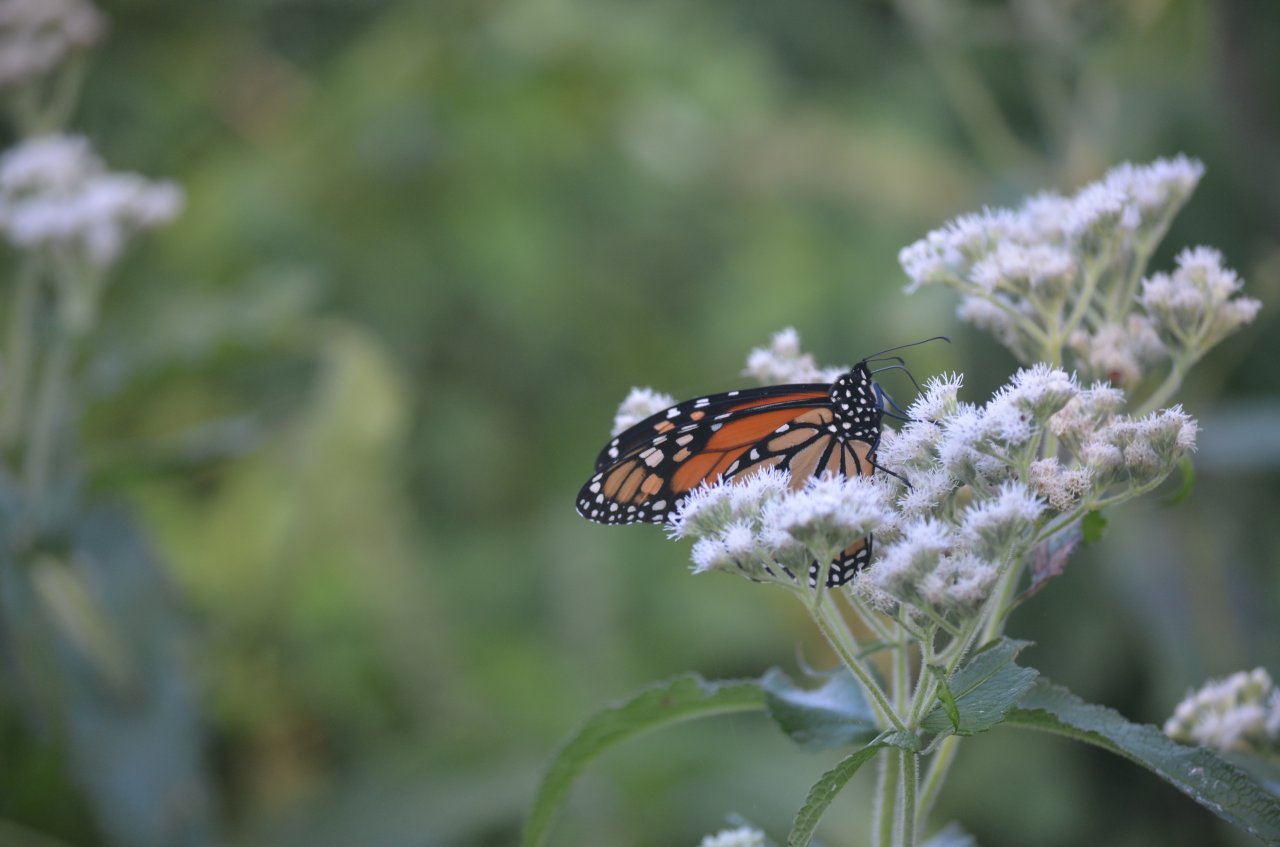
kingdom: Animalia
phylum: Arthropoda
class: Insecta
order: Lepidoptera
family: Nymphalidae
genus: Danaus
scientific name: Danaus plexippus
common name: Monarch
